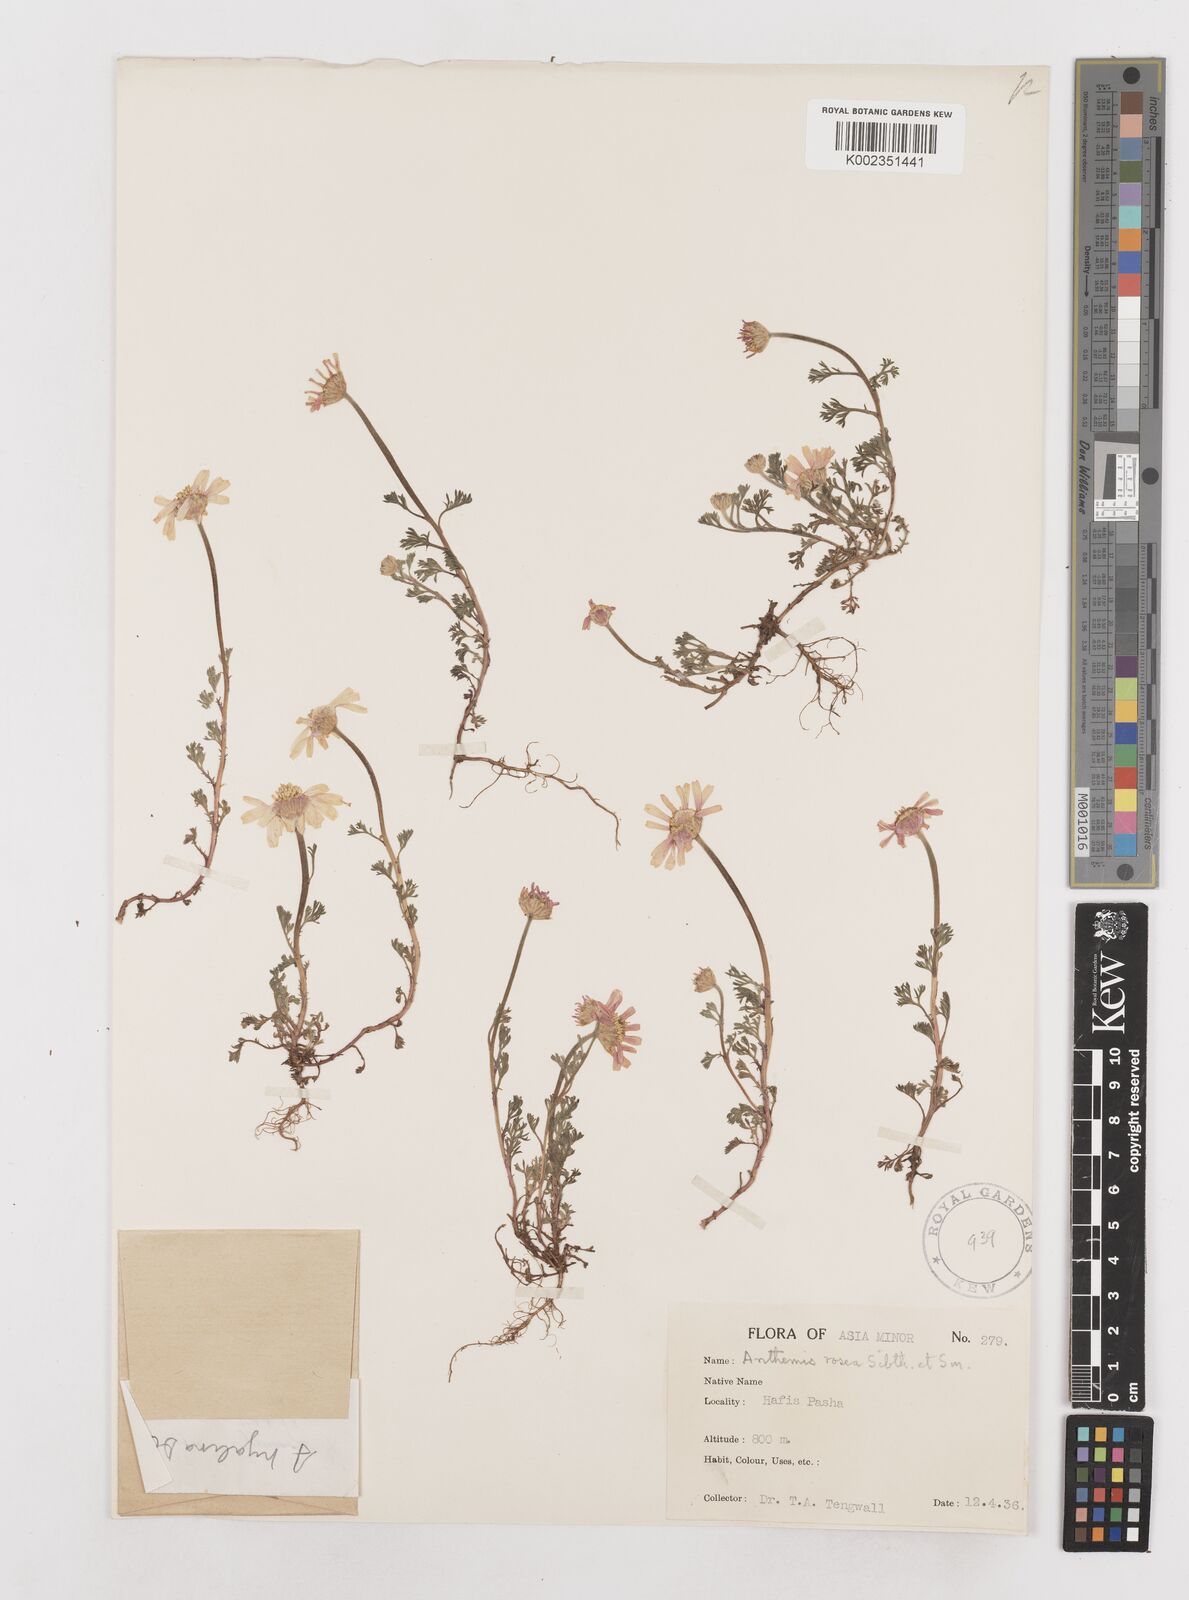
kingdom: Plantae
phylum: Tracheophyta
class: Magnoliopsida
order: Asterales
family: Asteraceae
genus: Anthemis
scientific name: Anthemis rosea
